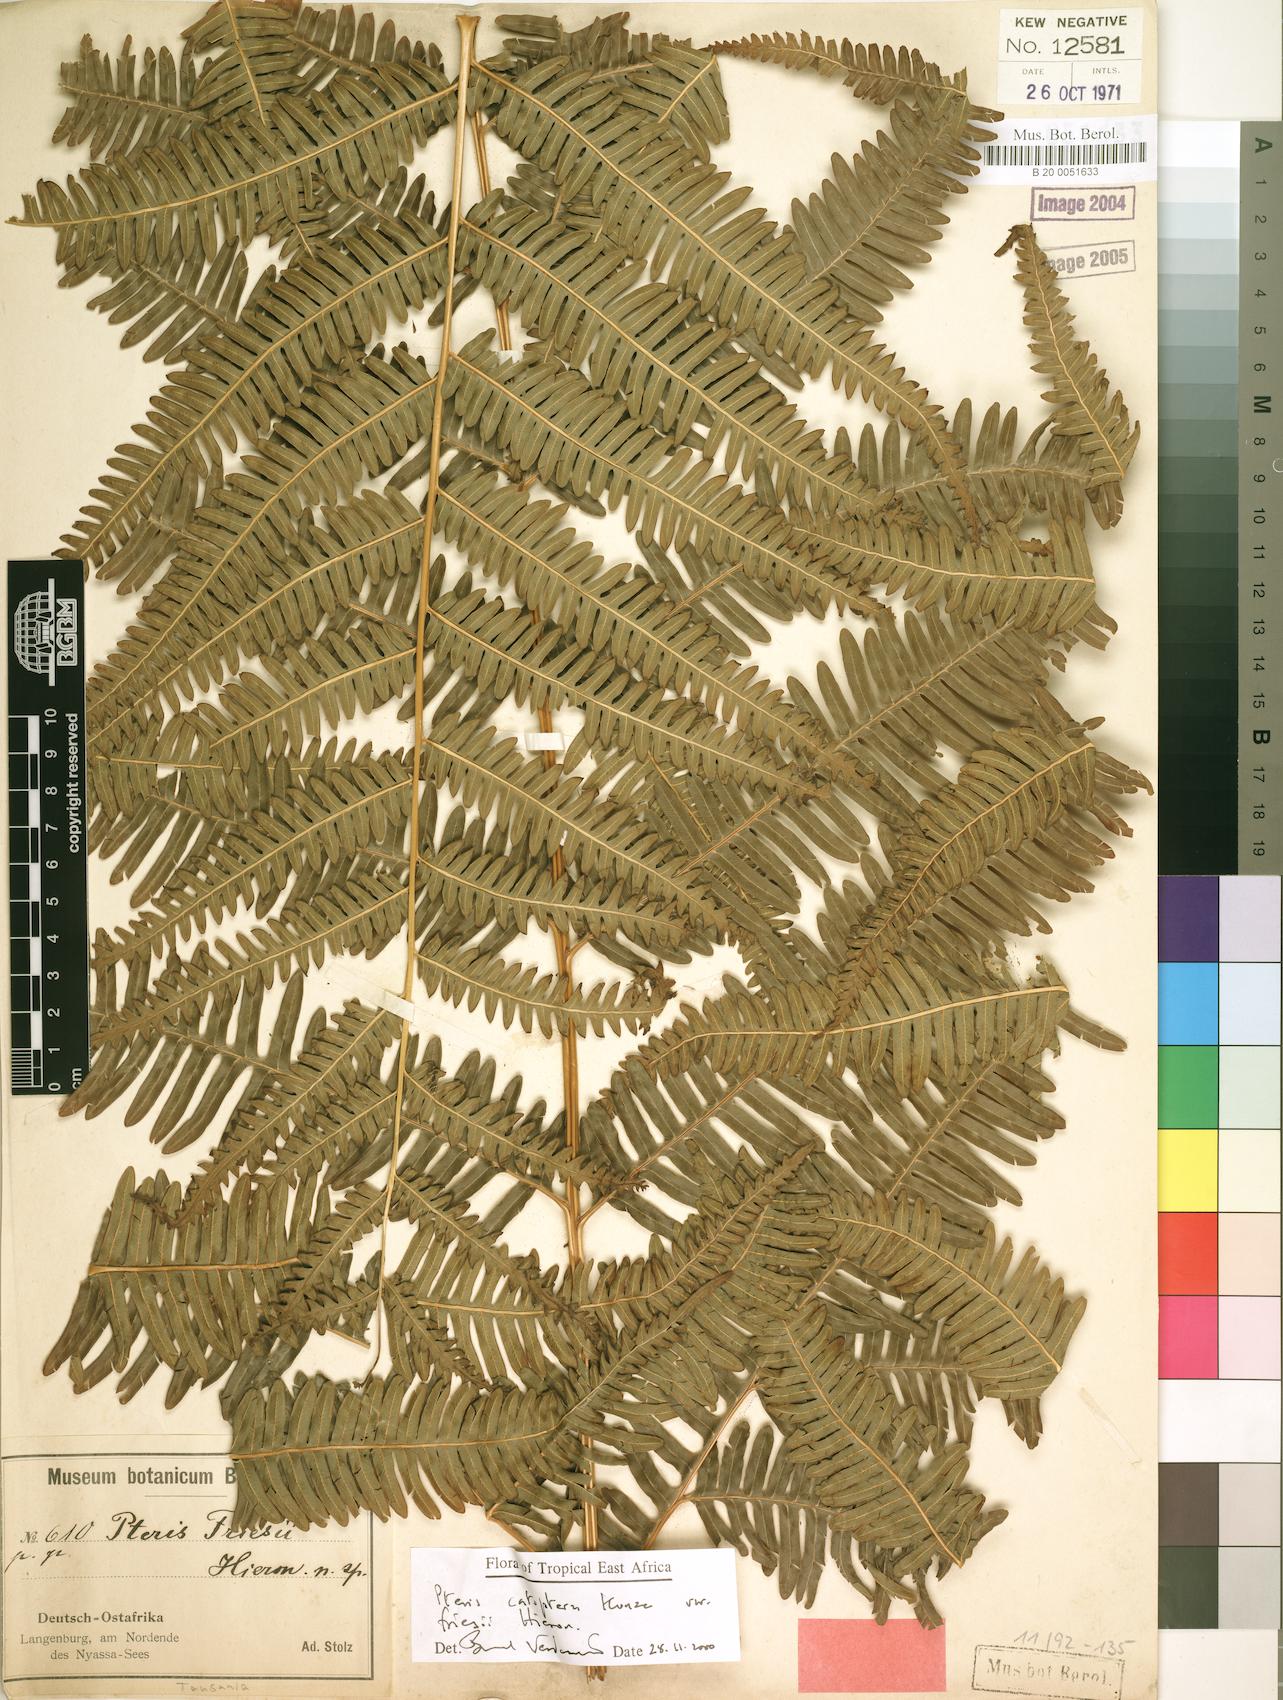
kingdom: Plantae
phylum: Tracheophyta
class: Polypodiopsida
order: Polypodiales
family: Pteridaceae
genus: Pteris
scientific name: Pteris friesii
